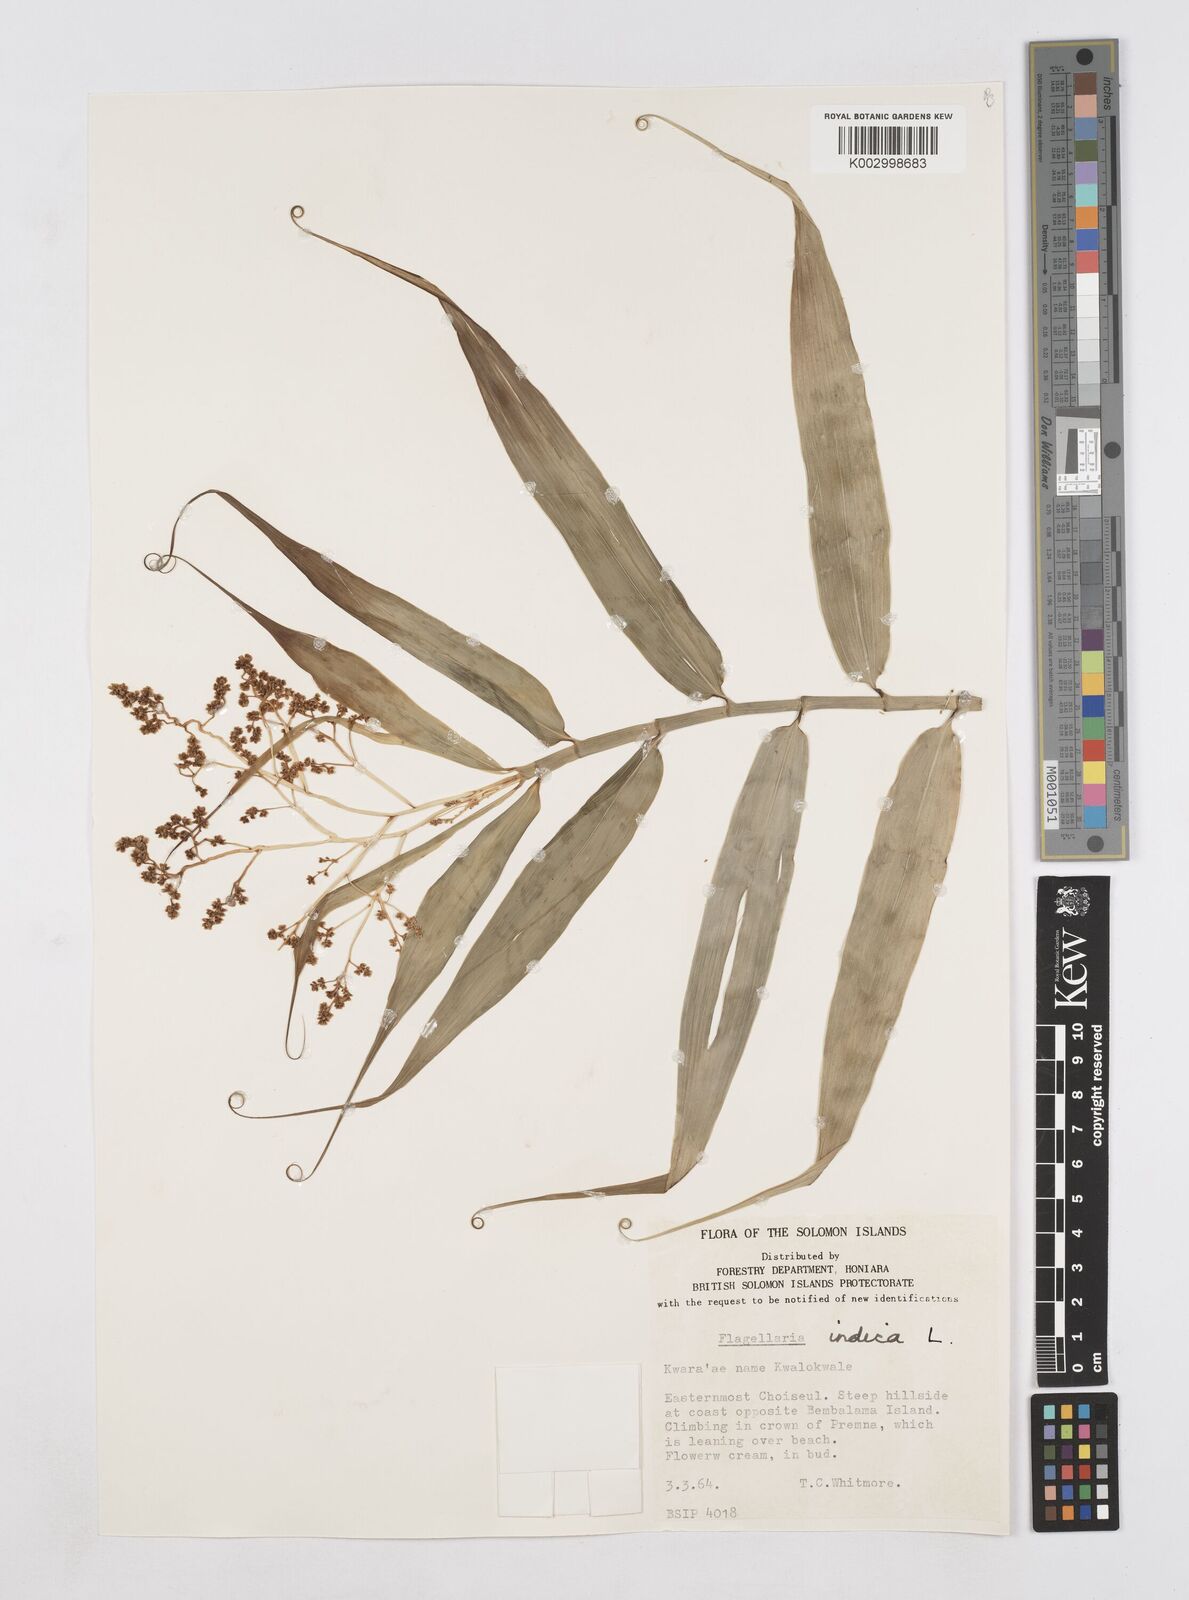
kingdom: Plantae
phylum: Tracheophyta
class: Liliopsida
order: Poales
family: Flagellariaceae
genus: Flagellaria
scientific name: Flagellaria indica
